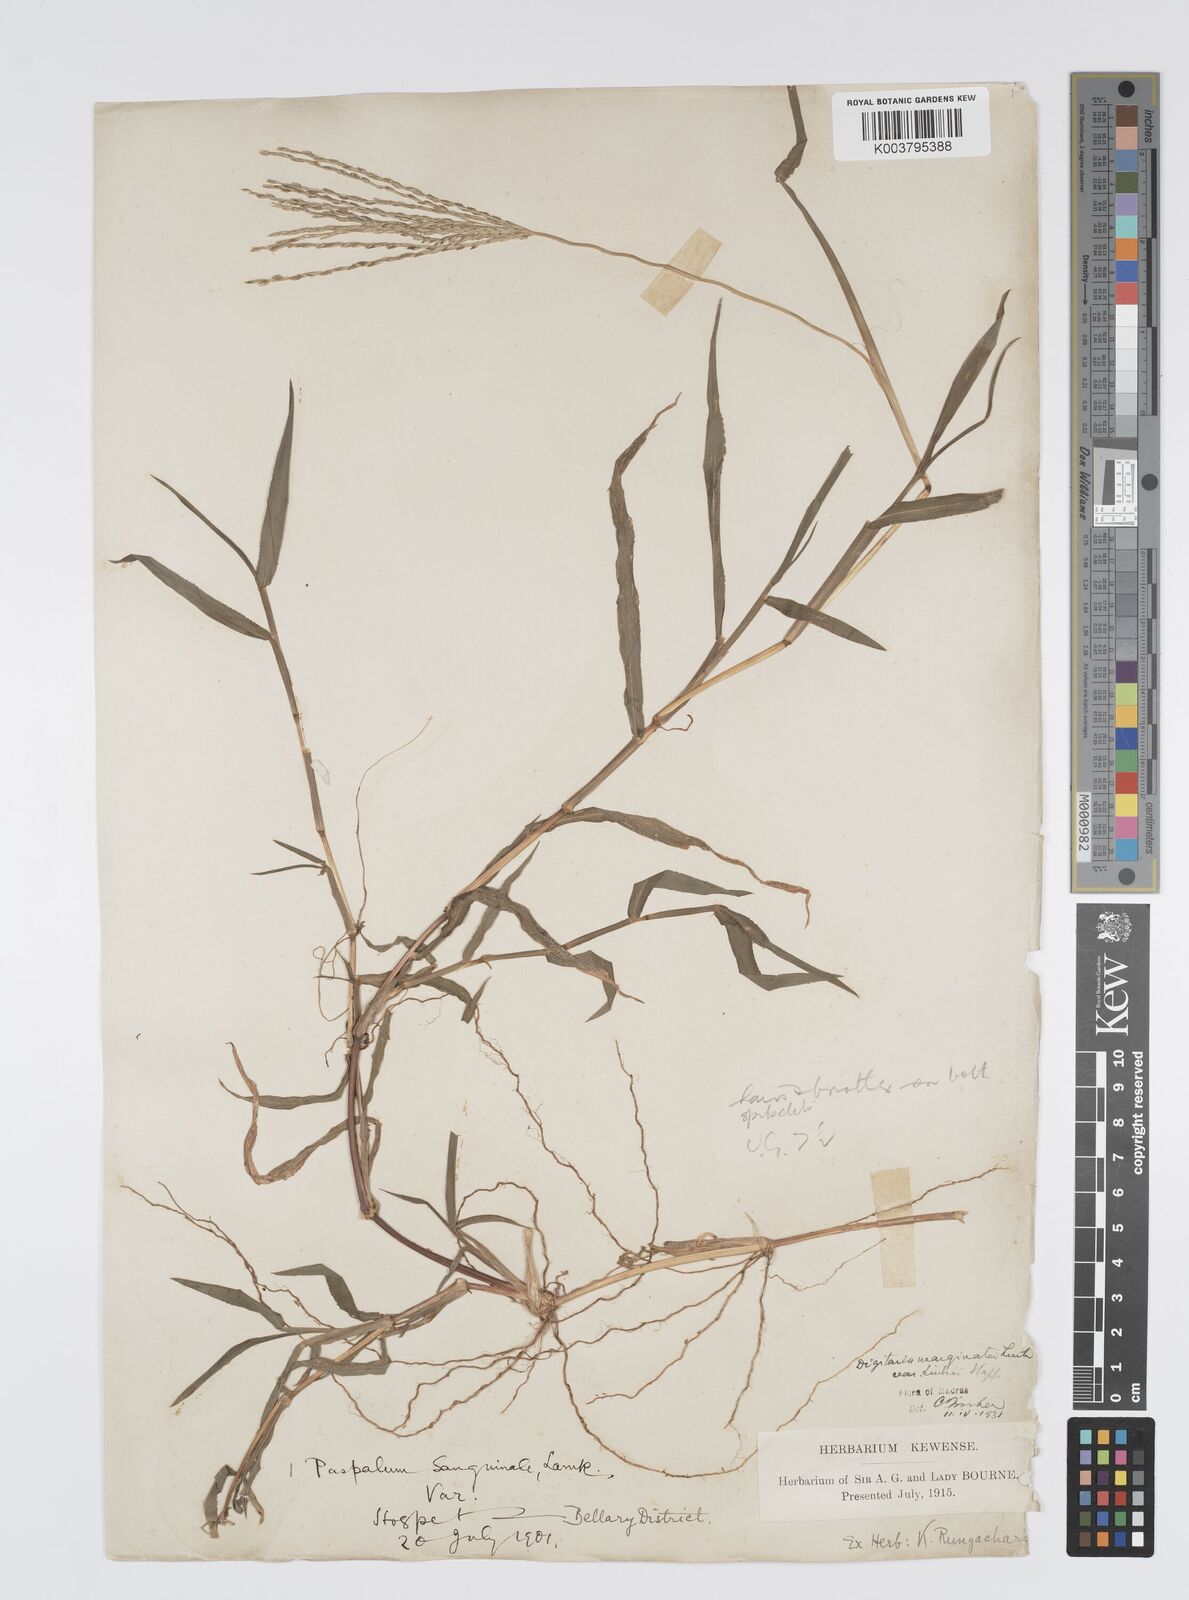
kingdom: Plantae
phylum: Tracheophyta
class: Liliopsida
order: Poales
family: Poaceae
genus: Digitaria
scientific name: Digitaria ciliaris
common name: Tropical finger-grass
